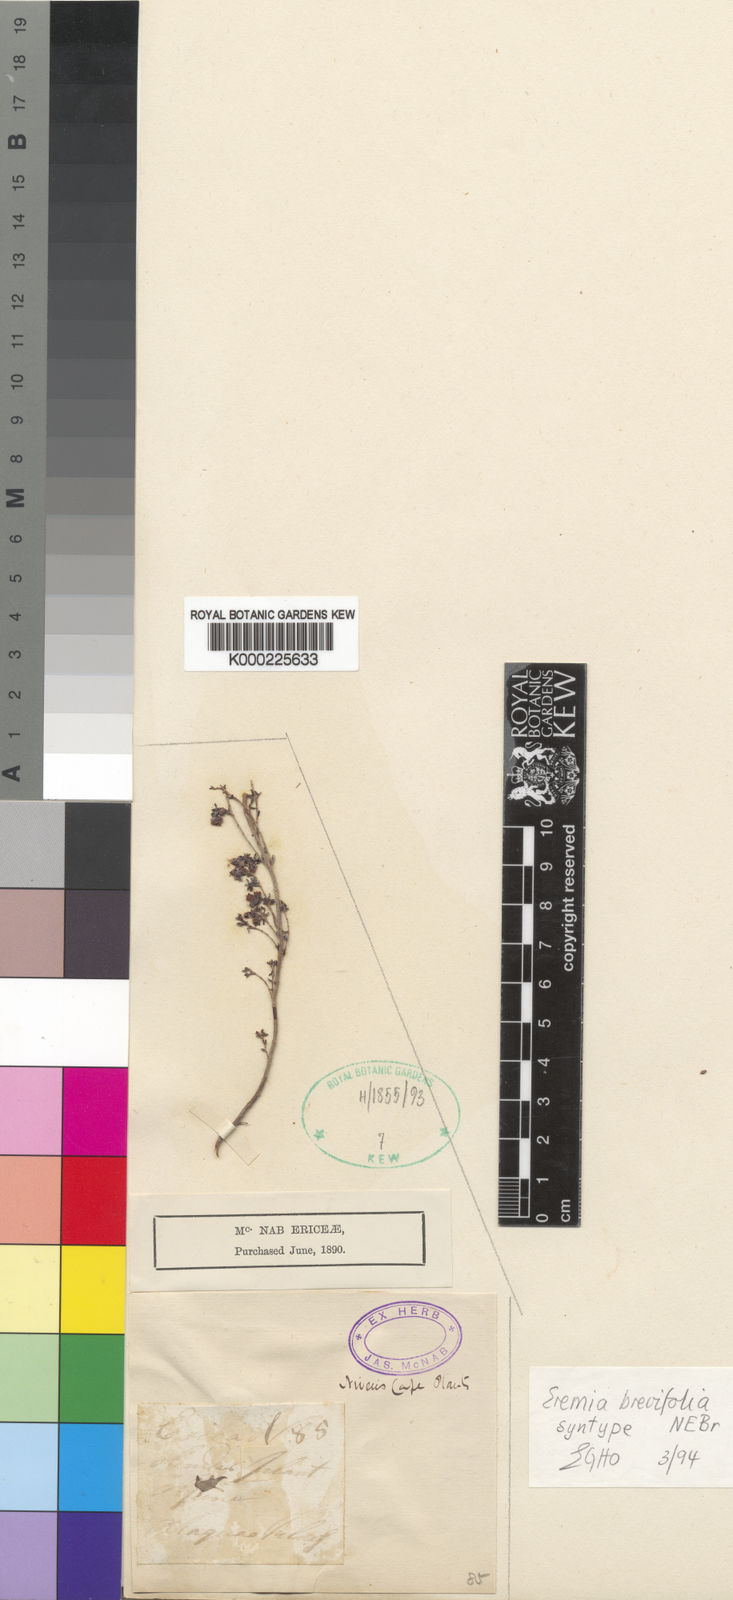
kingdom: Plantae
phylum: Tracheophyta
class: Magnoliopsida
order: Ericales
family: Ericaceae
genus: Erica
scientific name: Erica
